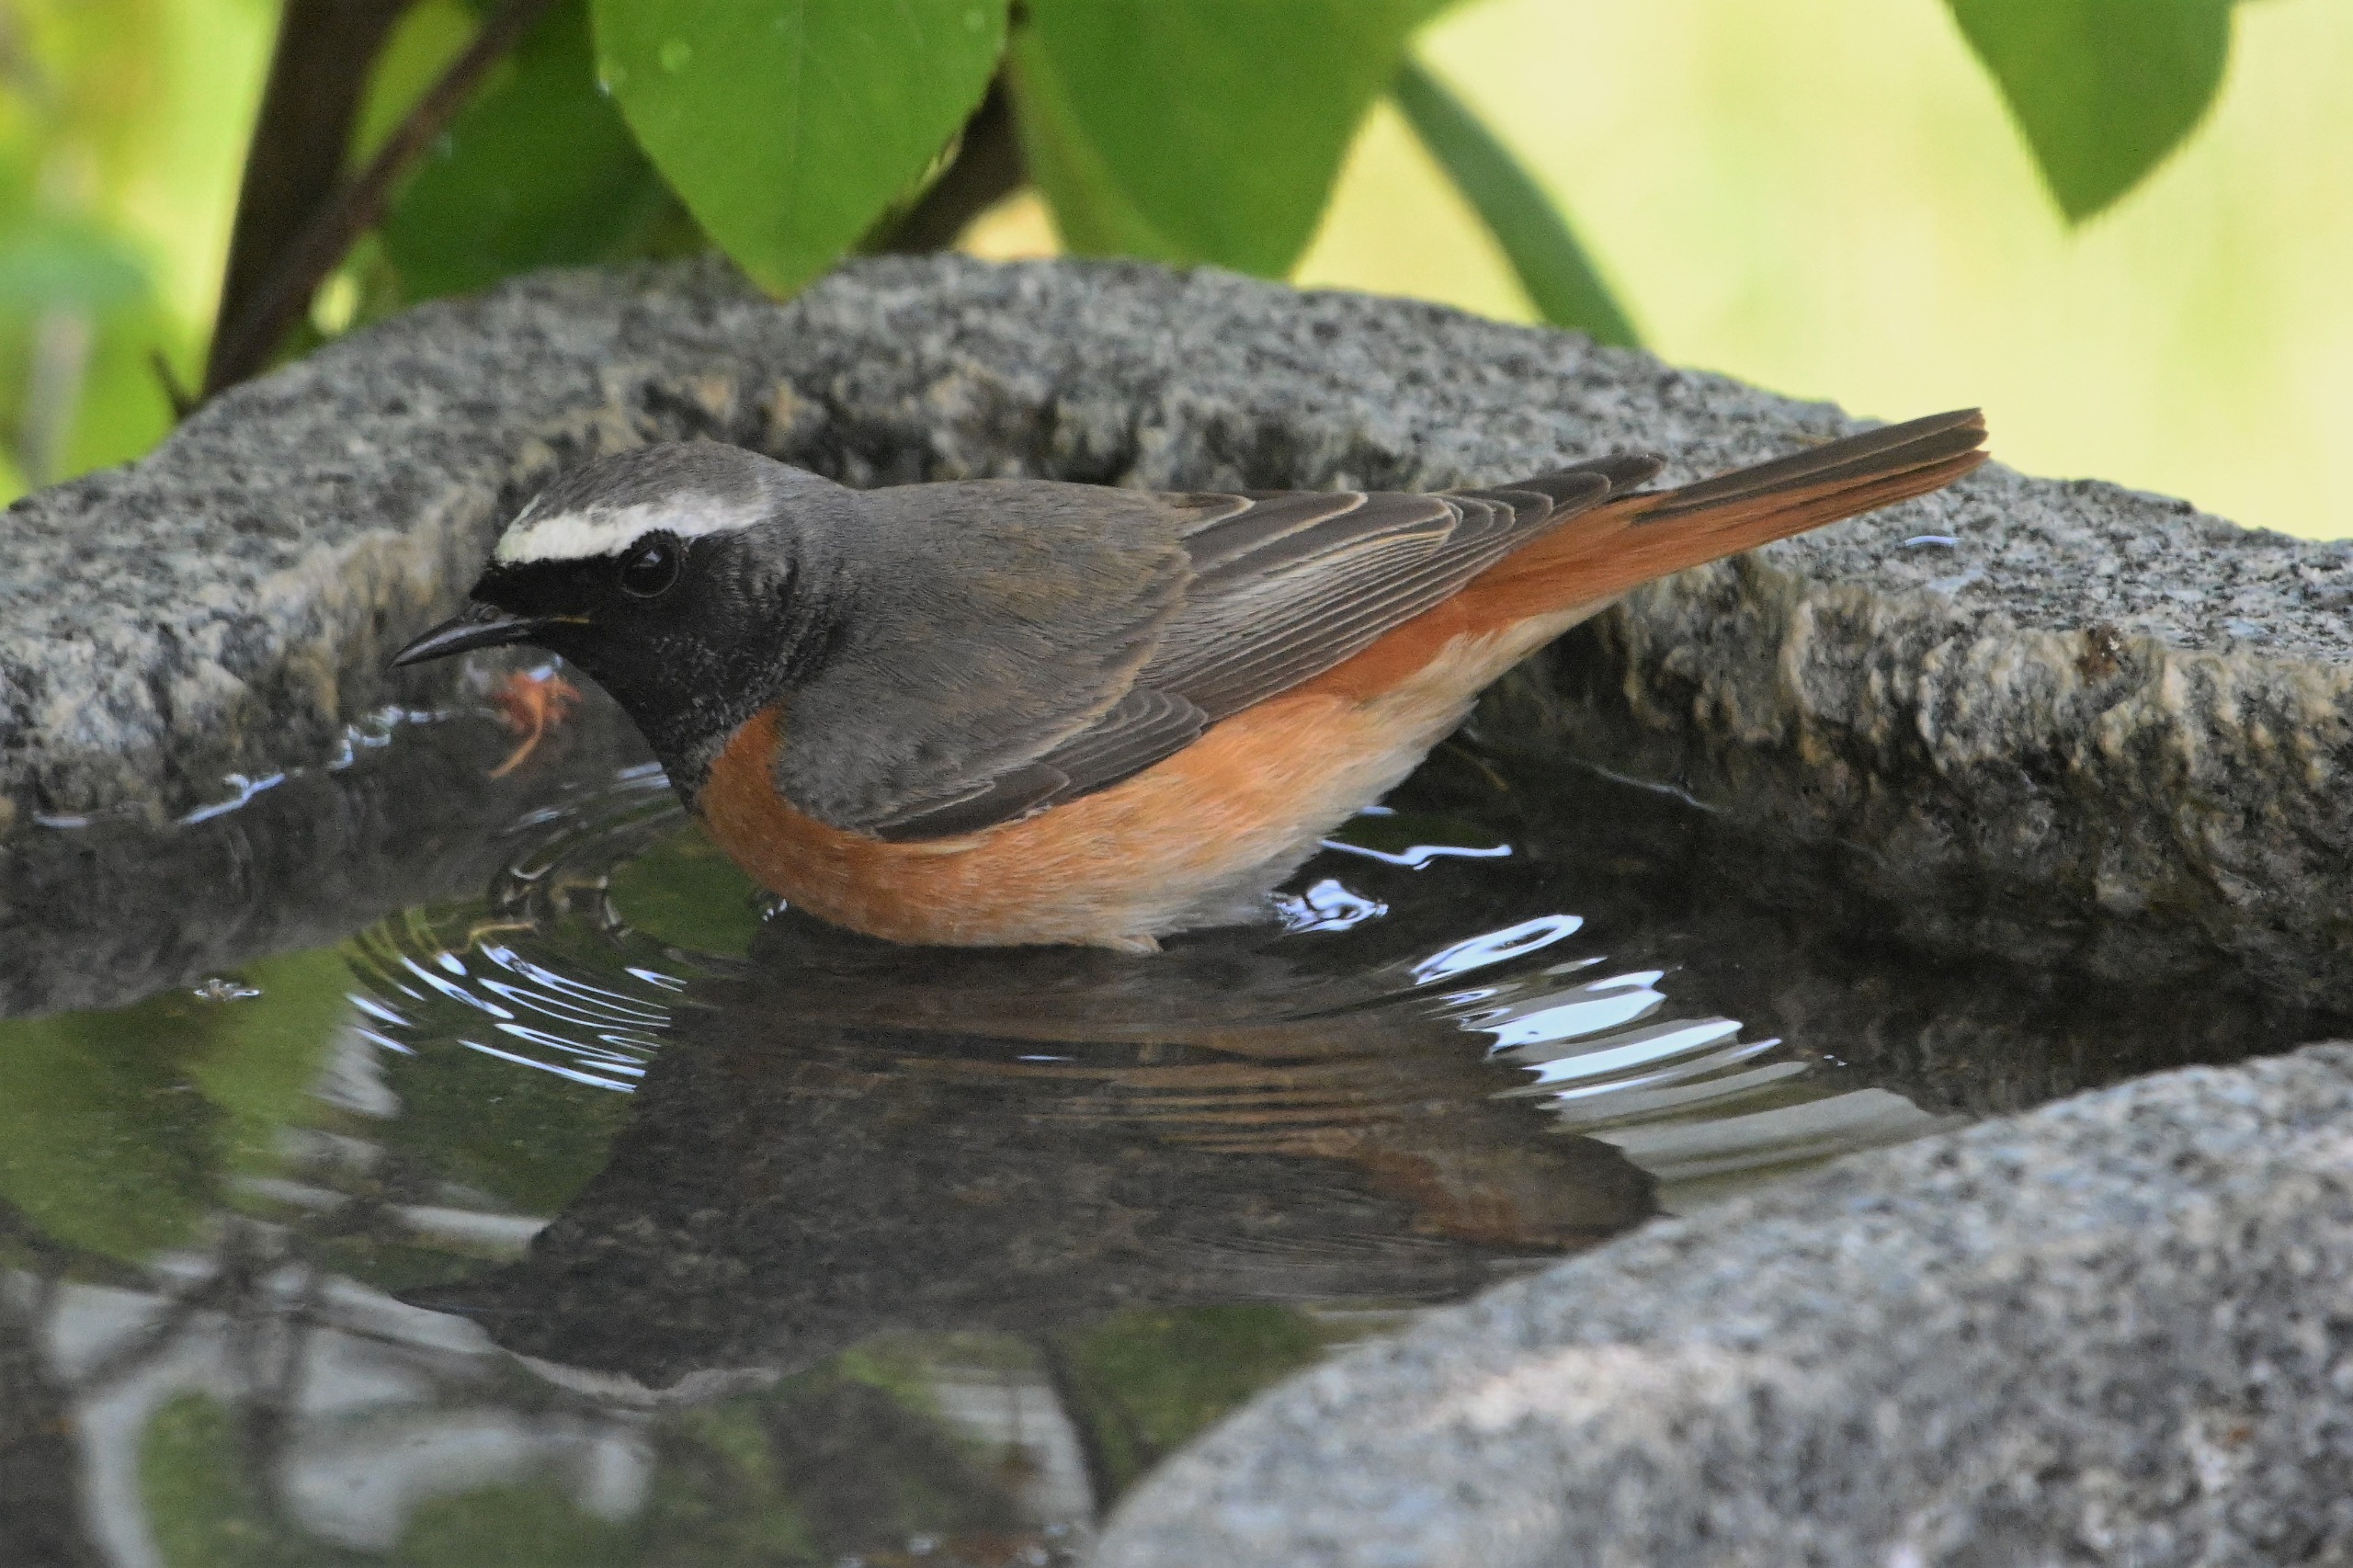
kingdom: Animalia
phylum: Chordata
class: Aves
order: Passeriformes
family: Muscicapidae
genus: Phoenicurus
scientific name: Phoenicurus phoenicurus
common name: Rødstjert
